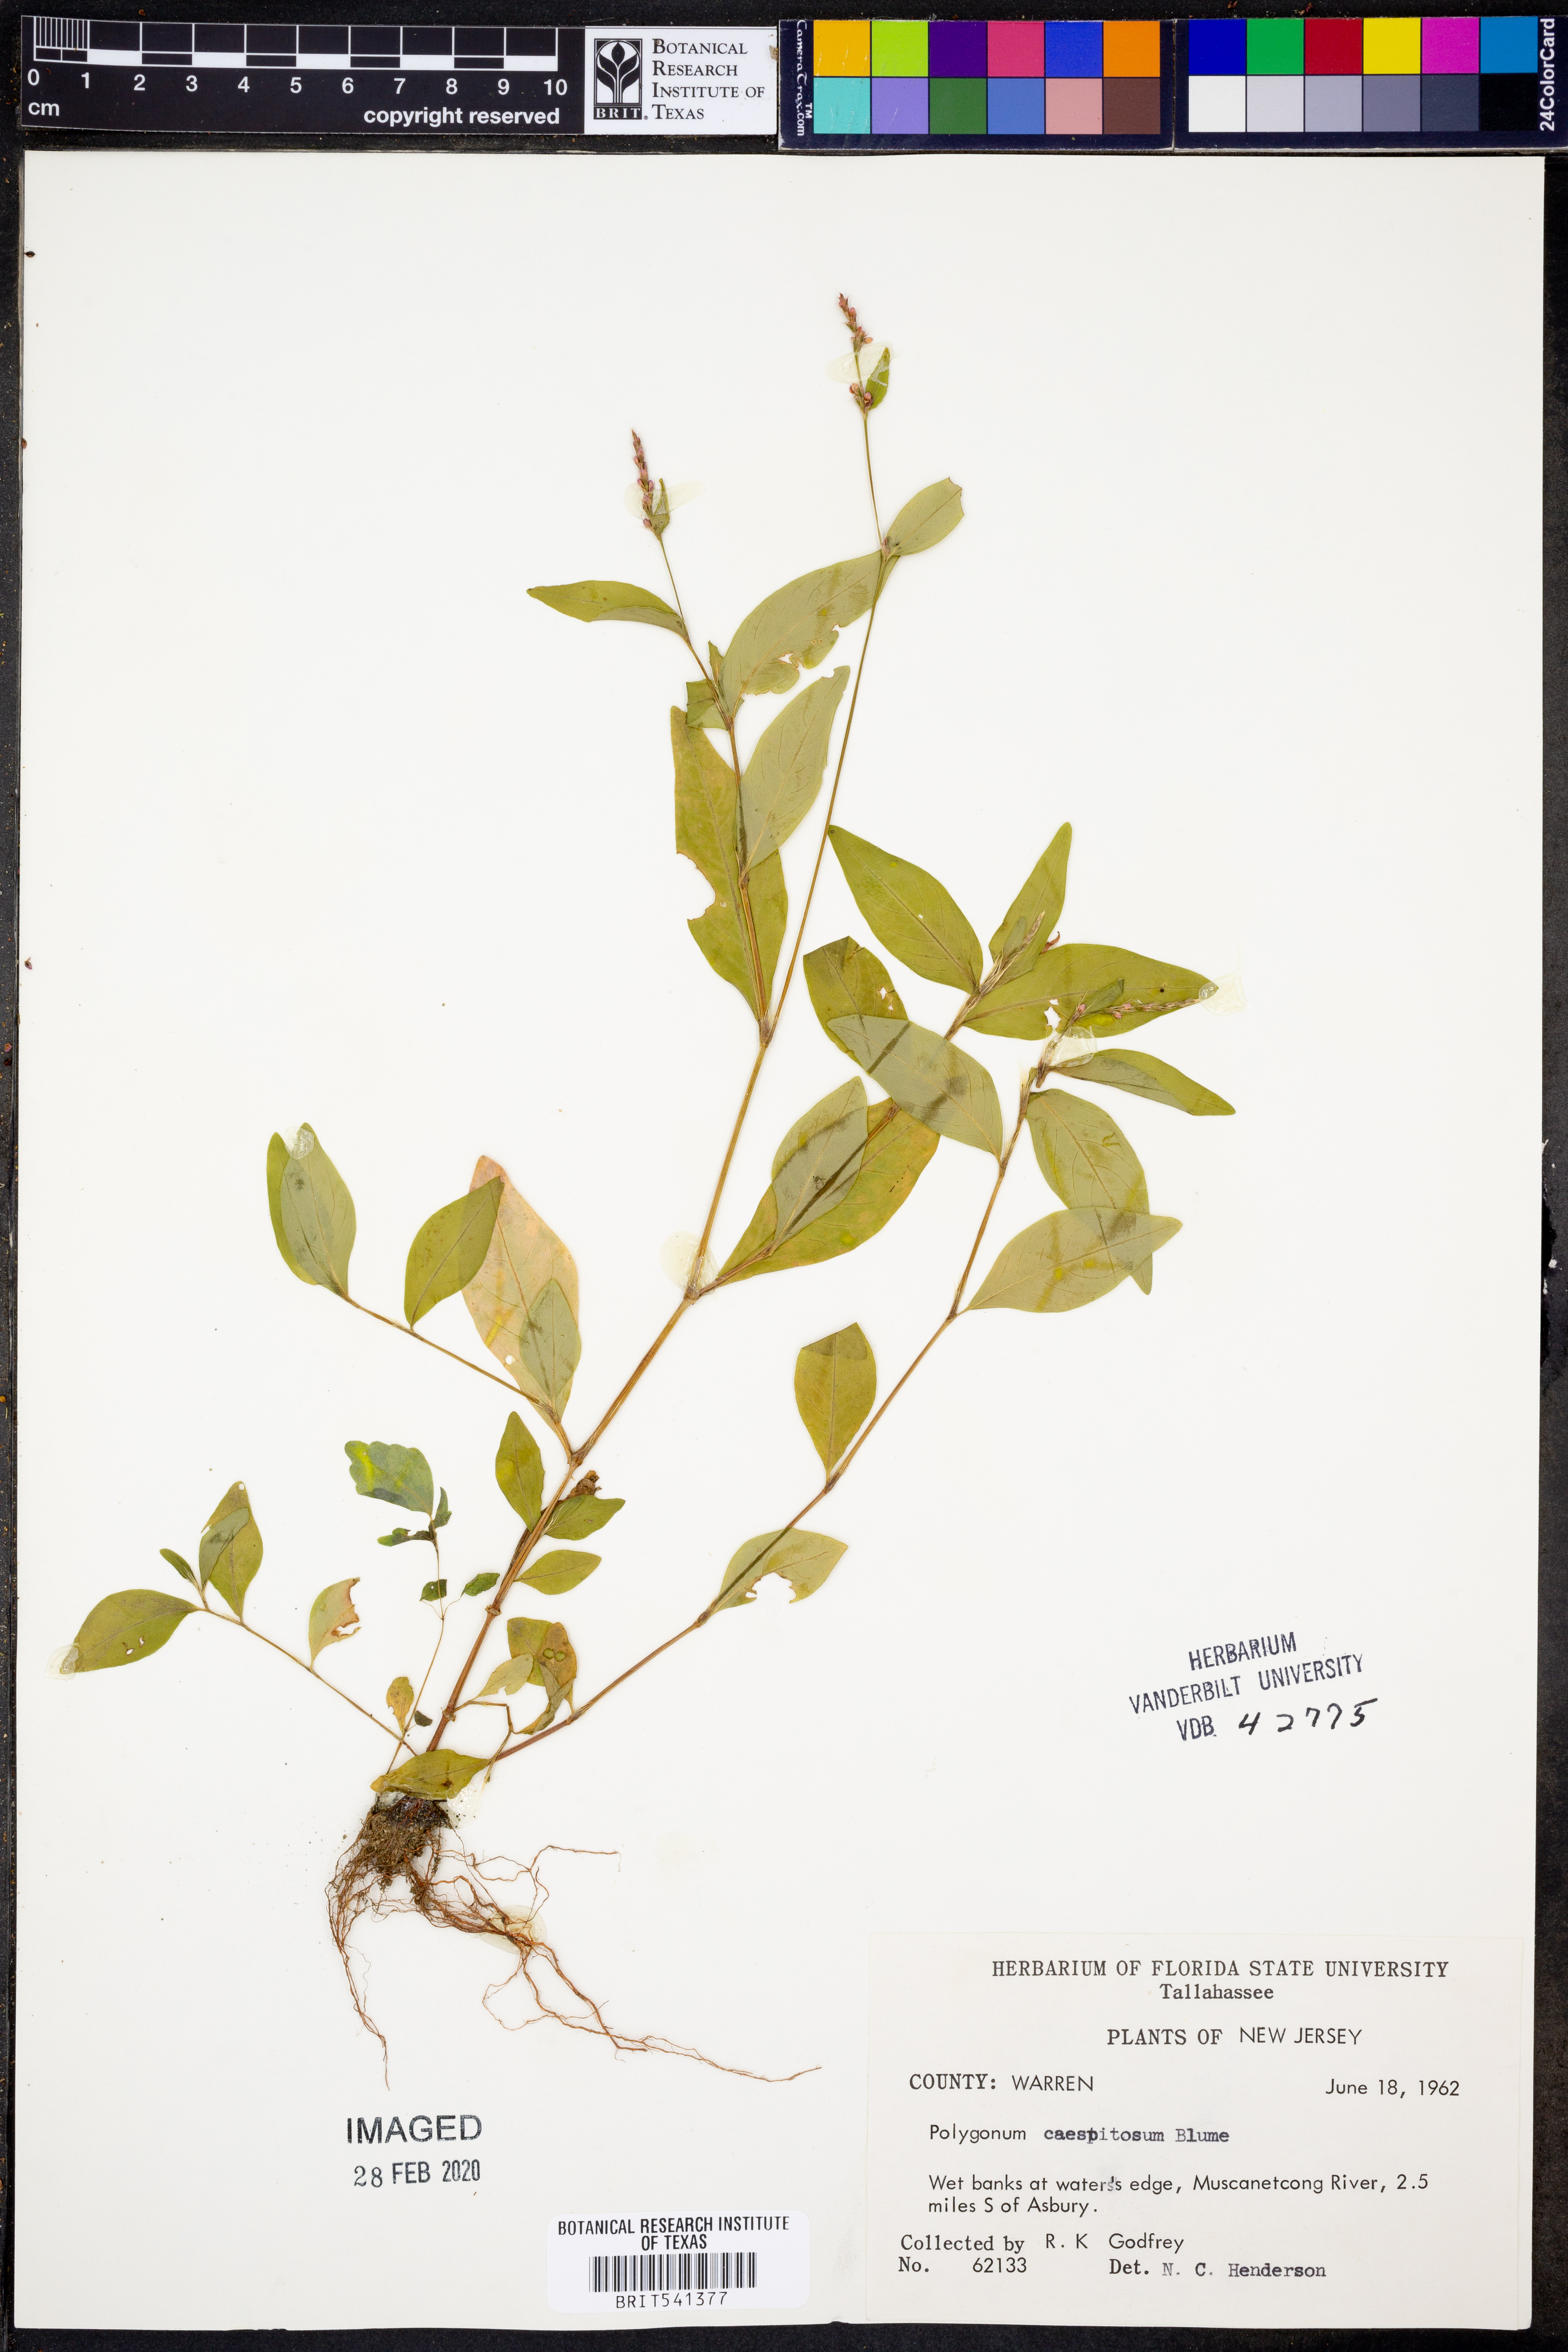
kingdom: Plantae
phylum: Tracheophyta
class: Magnoliopsida
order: Caryophyllales
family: Polygonaceae
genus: Persicaria
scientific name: Persicaria posumbu
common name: Oriental lady's thumb
